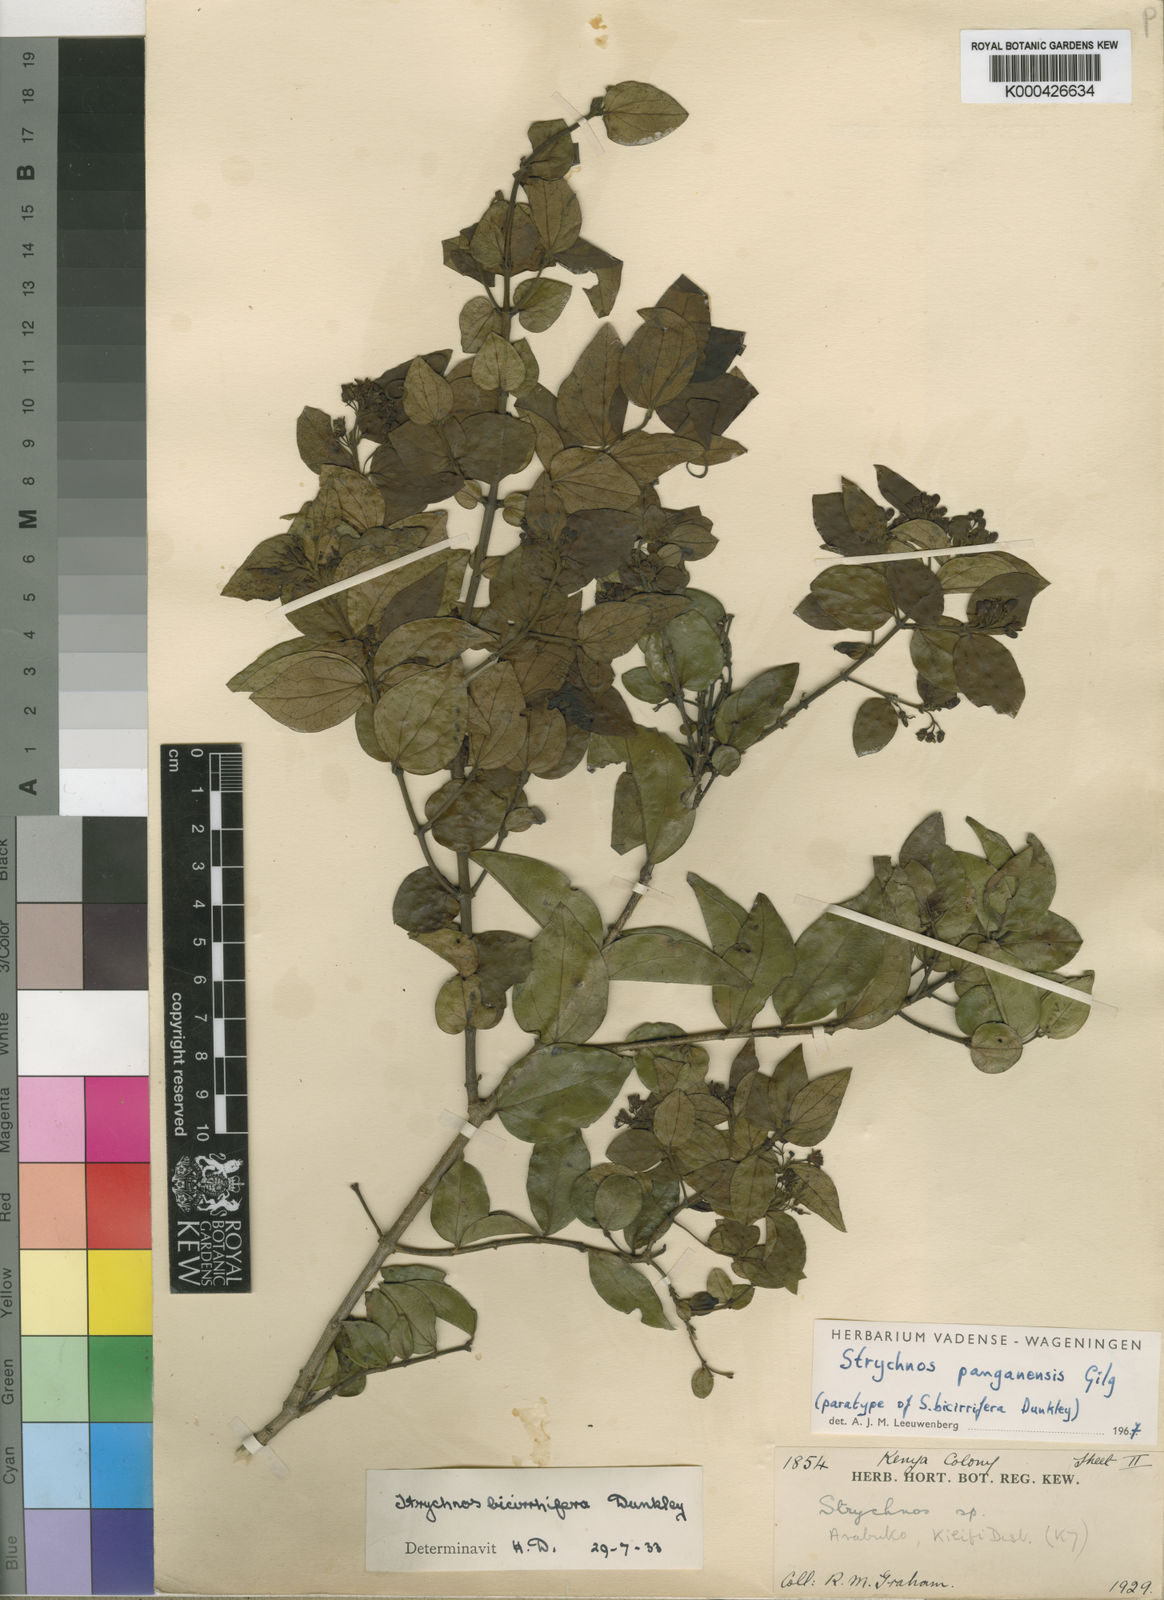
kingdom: Plantae
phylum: Tracheophyta
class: Magnoliopsida
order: Gentianales
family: Loganiaceae
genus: Strychnos
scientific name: Strychnos panganensis
